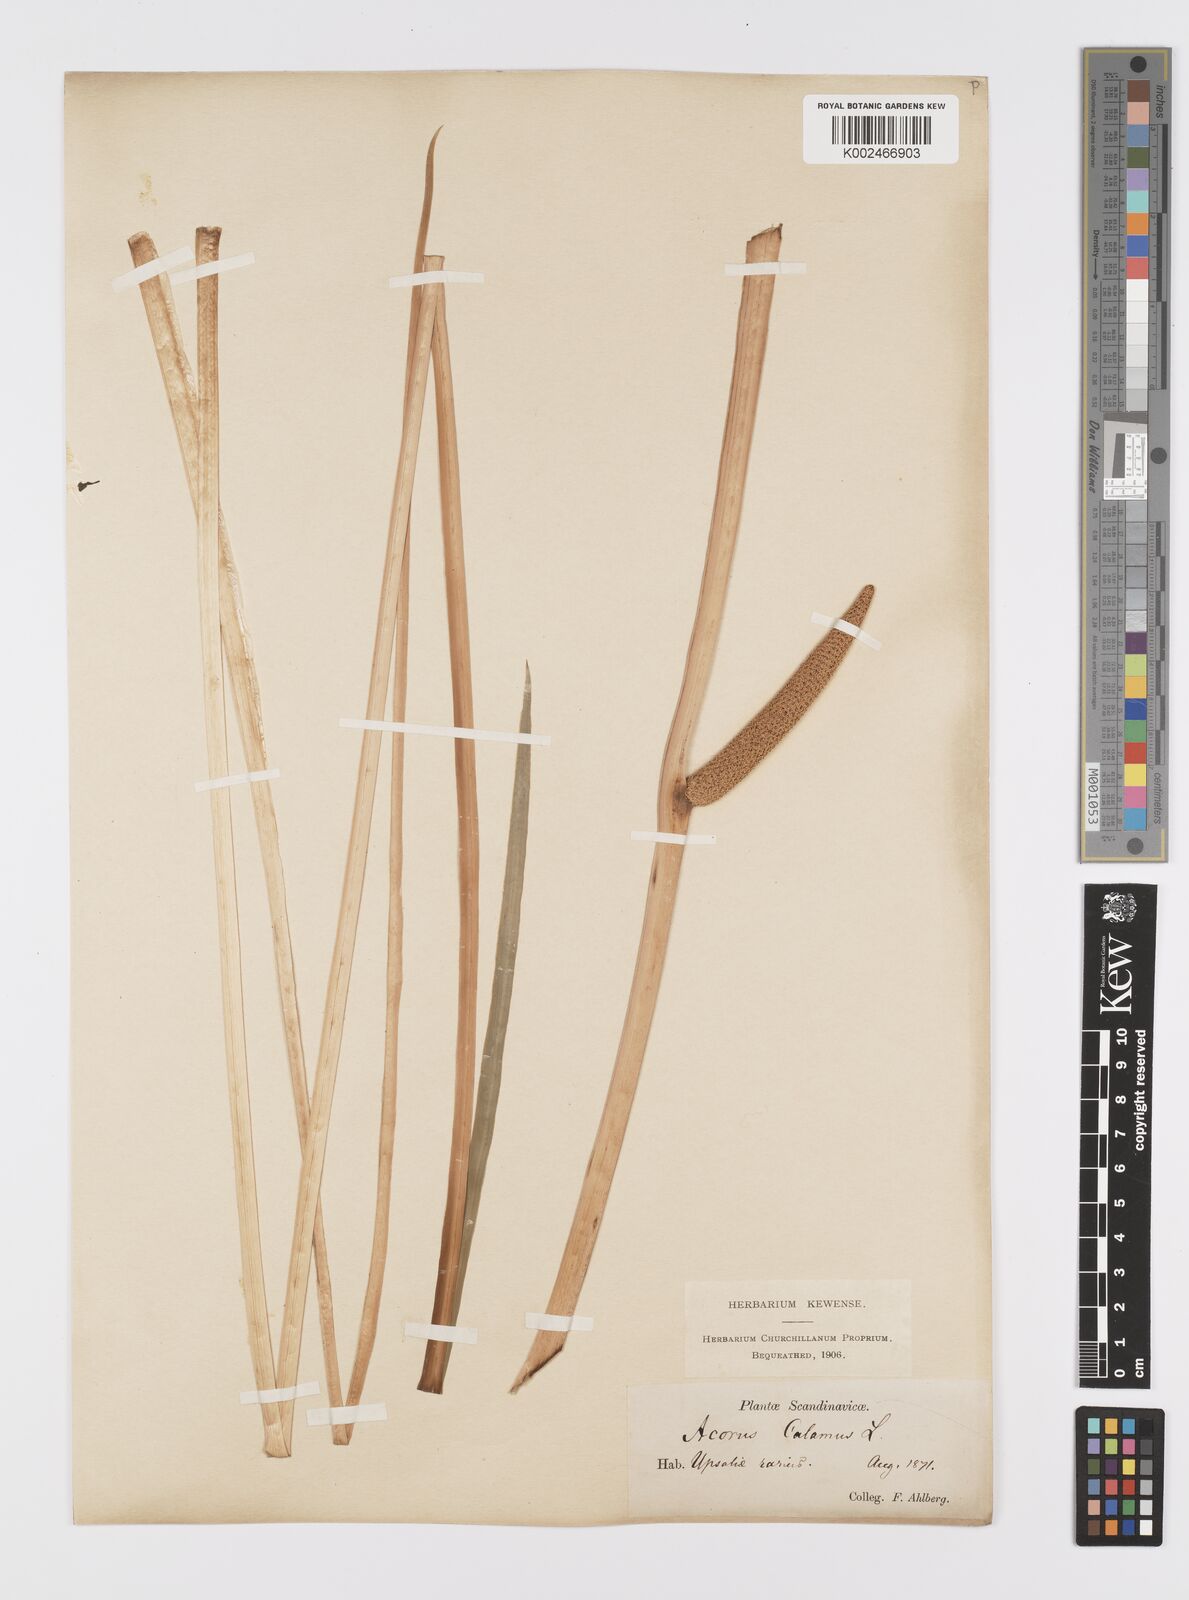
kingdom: Plantae
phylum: Tracheophyta
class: Liliopsida
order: Acorales
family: Acoraceae
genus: Acorus
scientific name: Acorus calamus
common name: Sweet-flag
